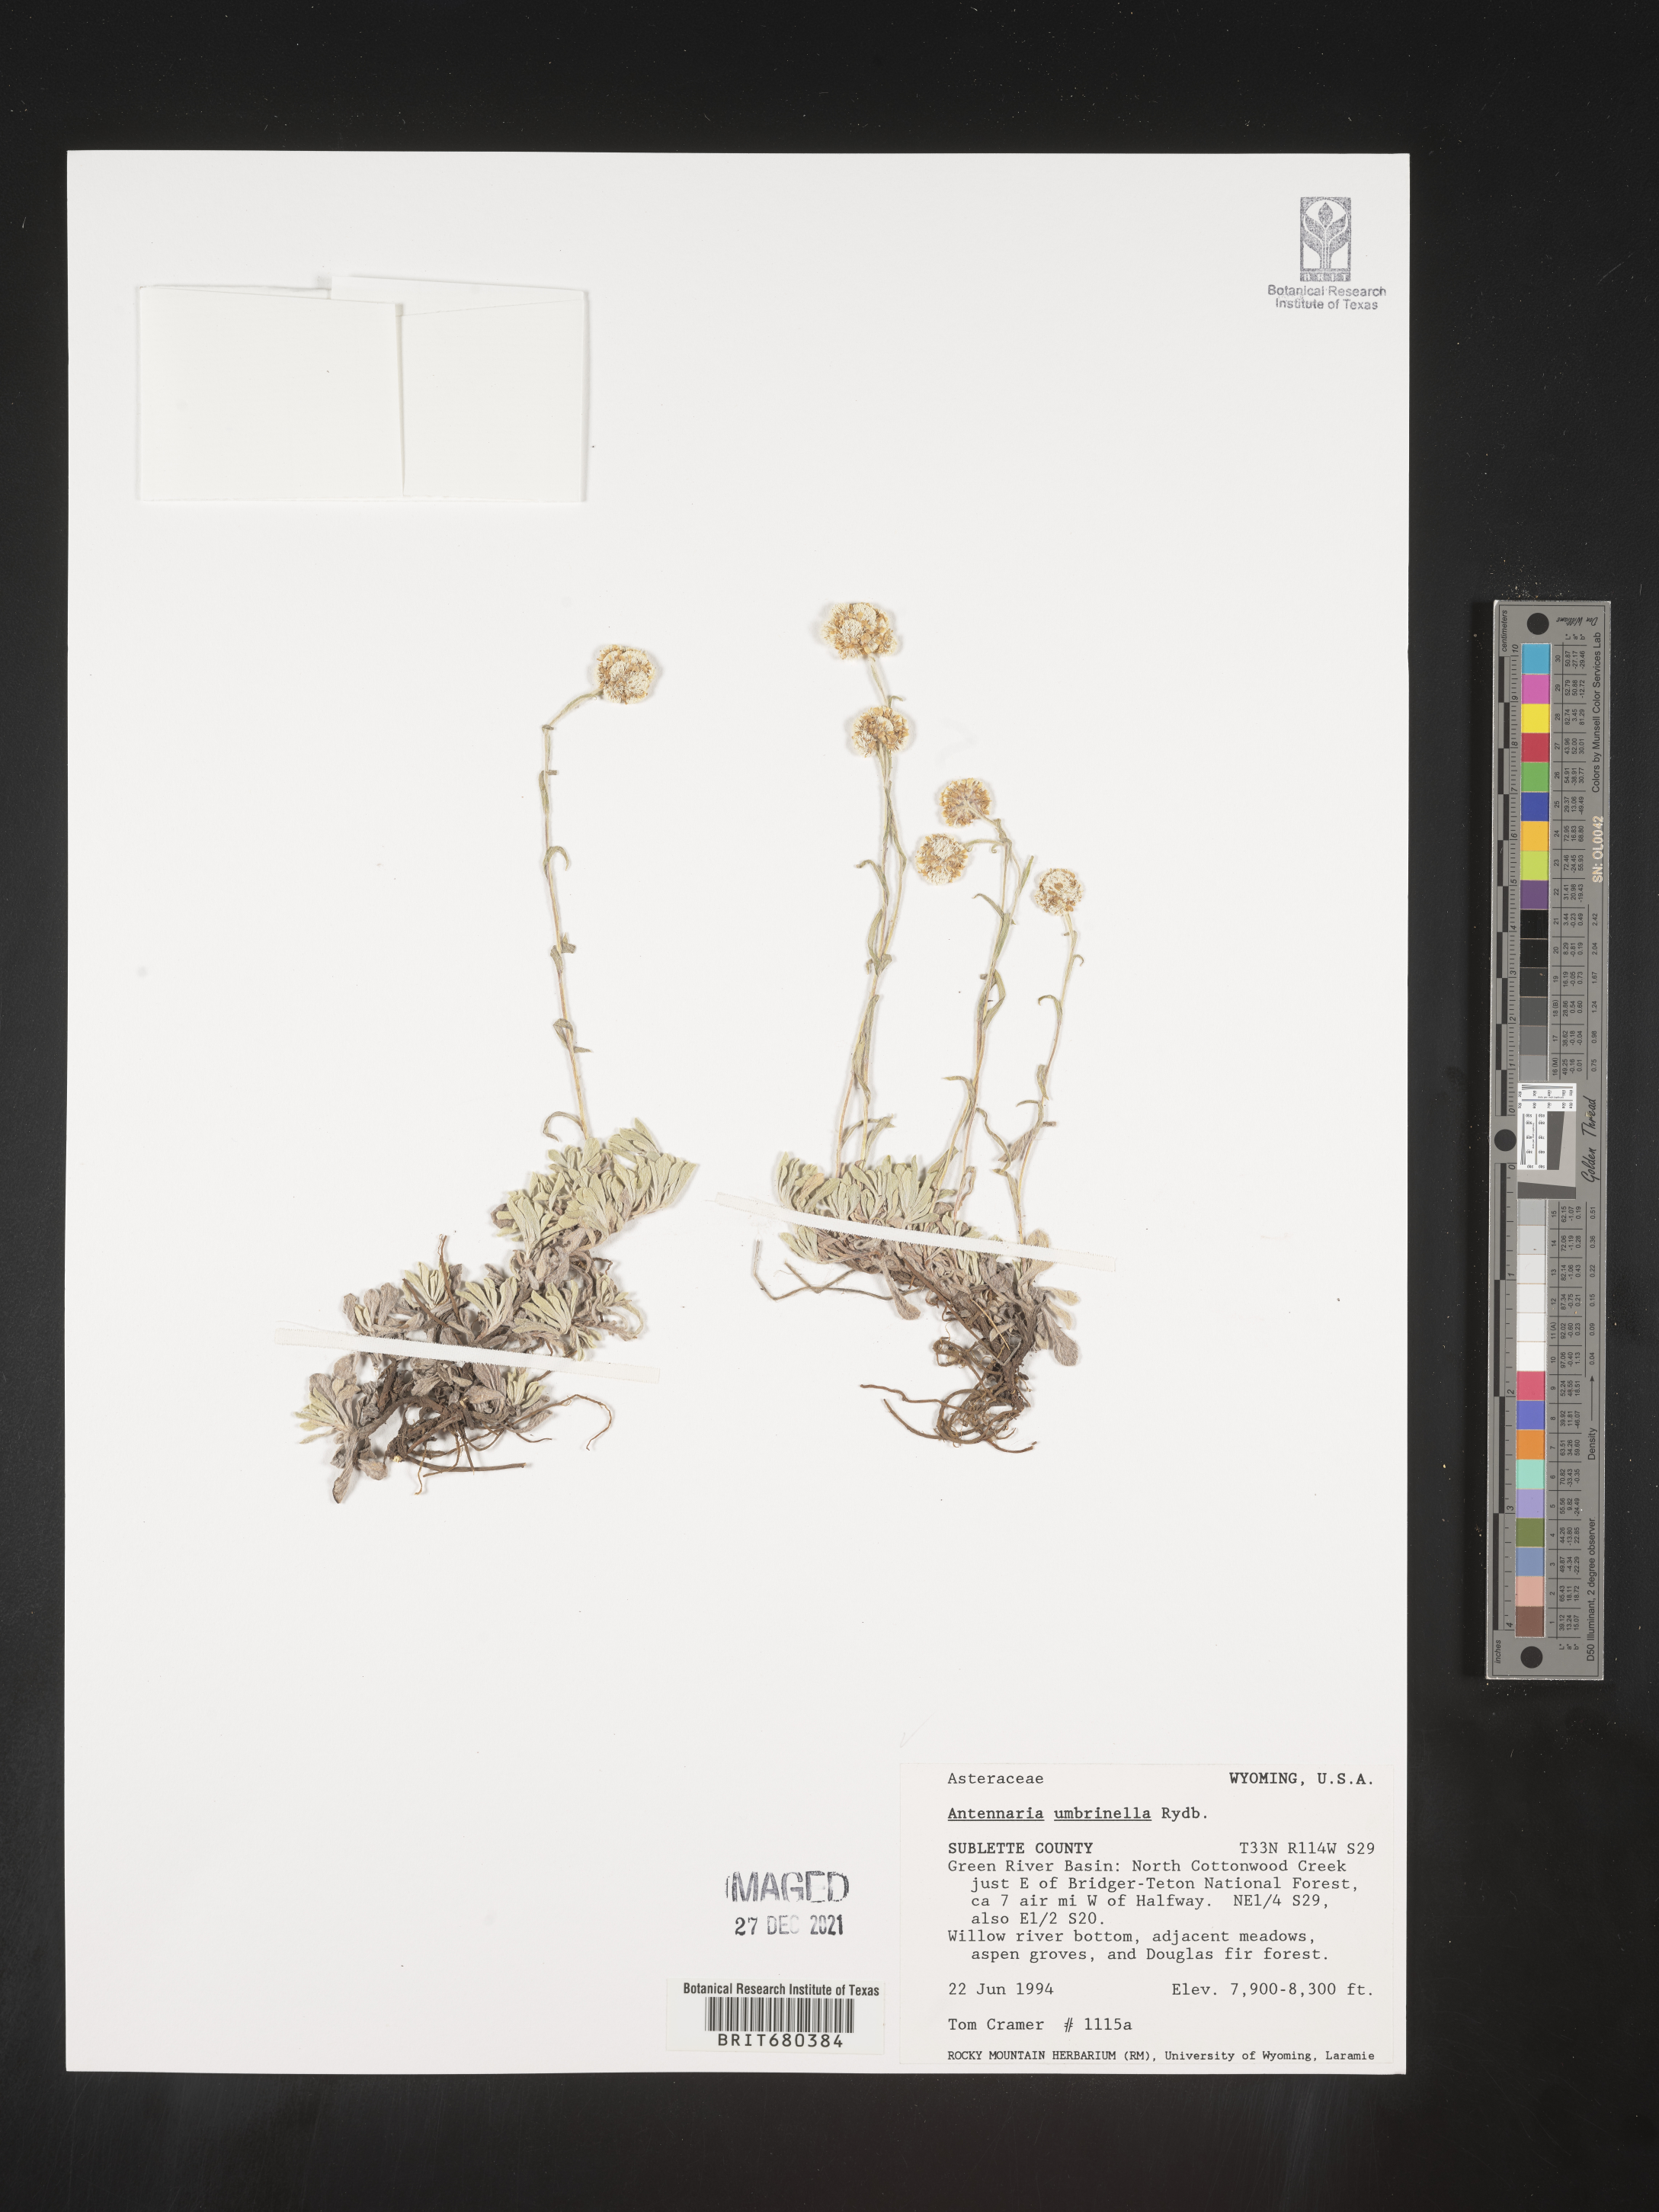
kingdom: Plantae
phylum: Tracheophyta
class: Magnoliopsida
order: Asterales
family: Asteraceae
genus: Antennaria
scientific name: Antennaria umbrinella
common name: Brown pussytoes
